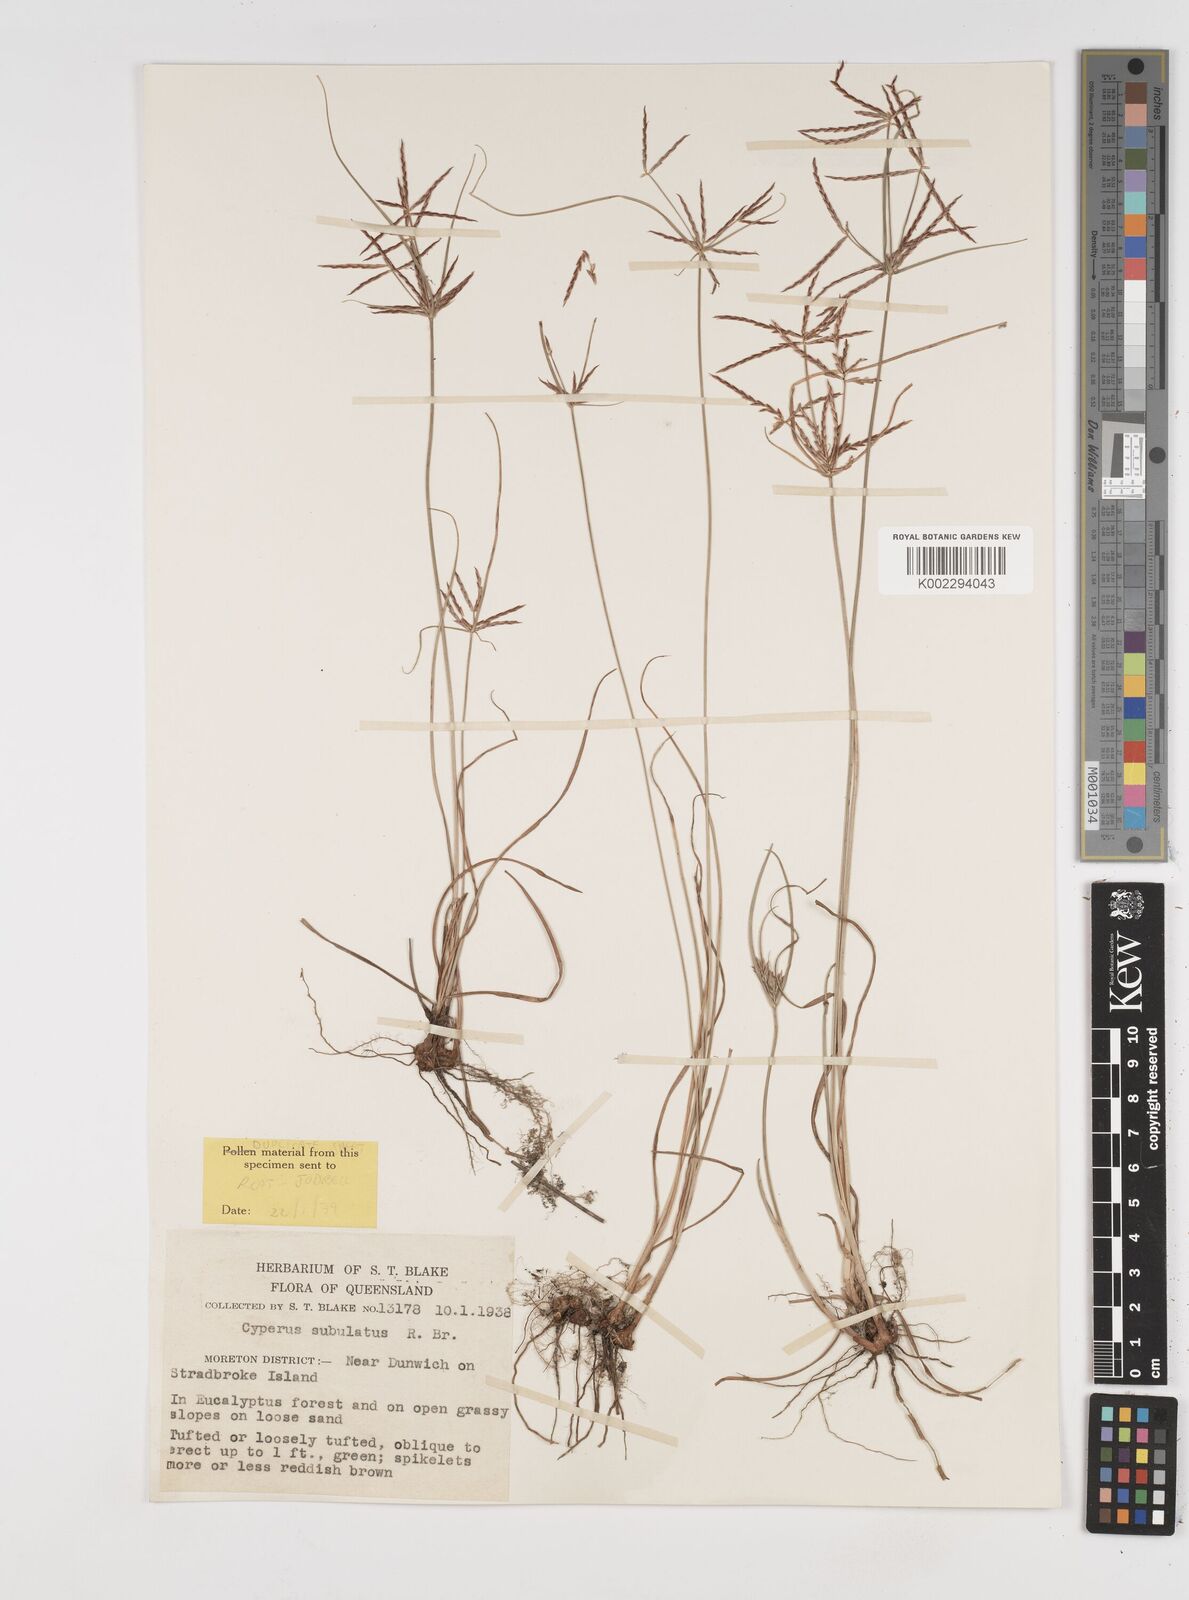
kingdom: Plantae
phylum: Tracheophyta
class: Liliopsida
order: Poales
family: Cyperaceae
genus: Cyperus
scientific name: Cyperus subulatus
